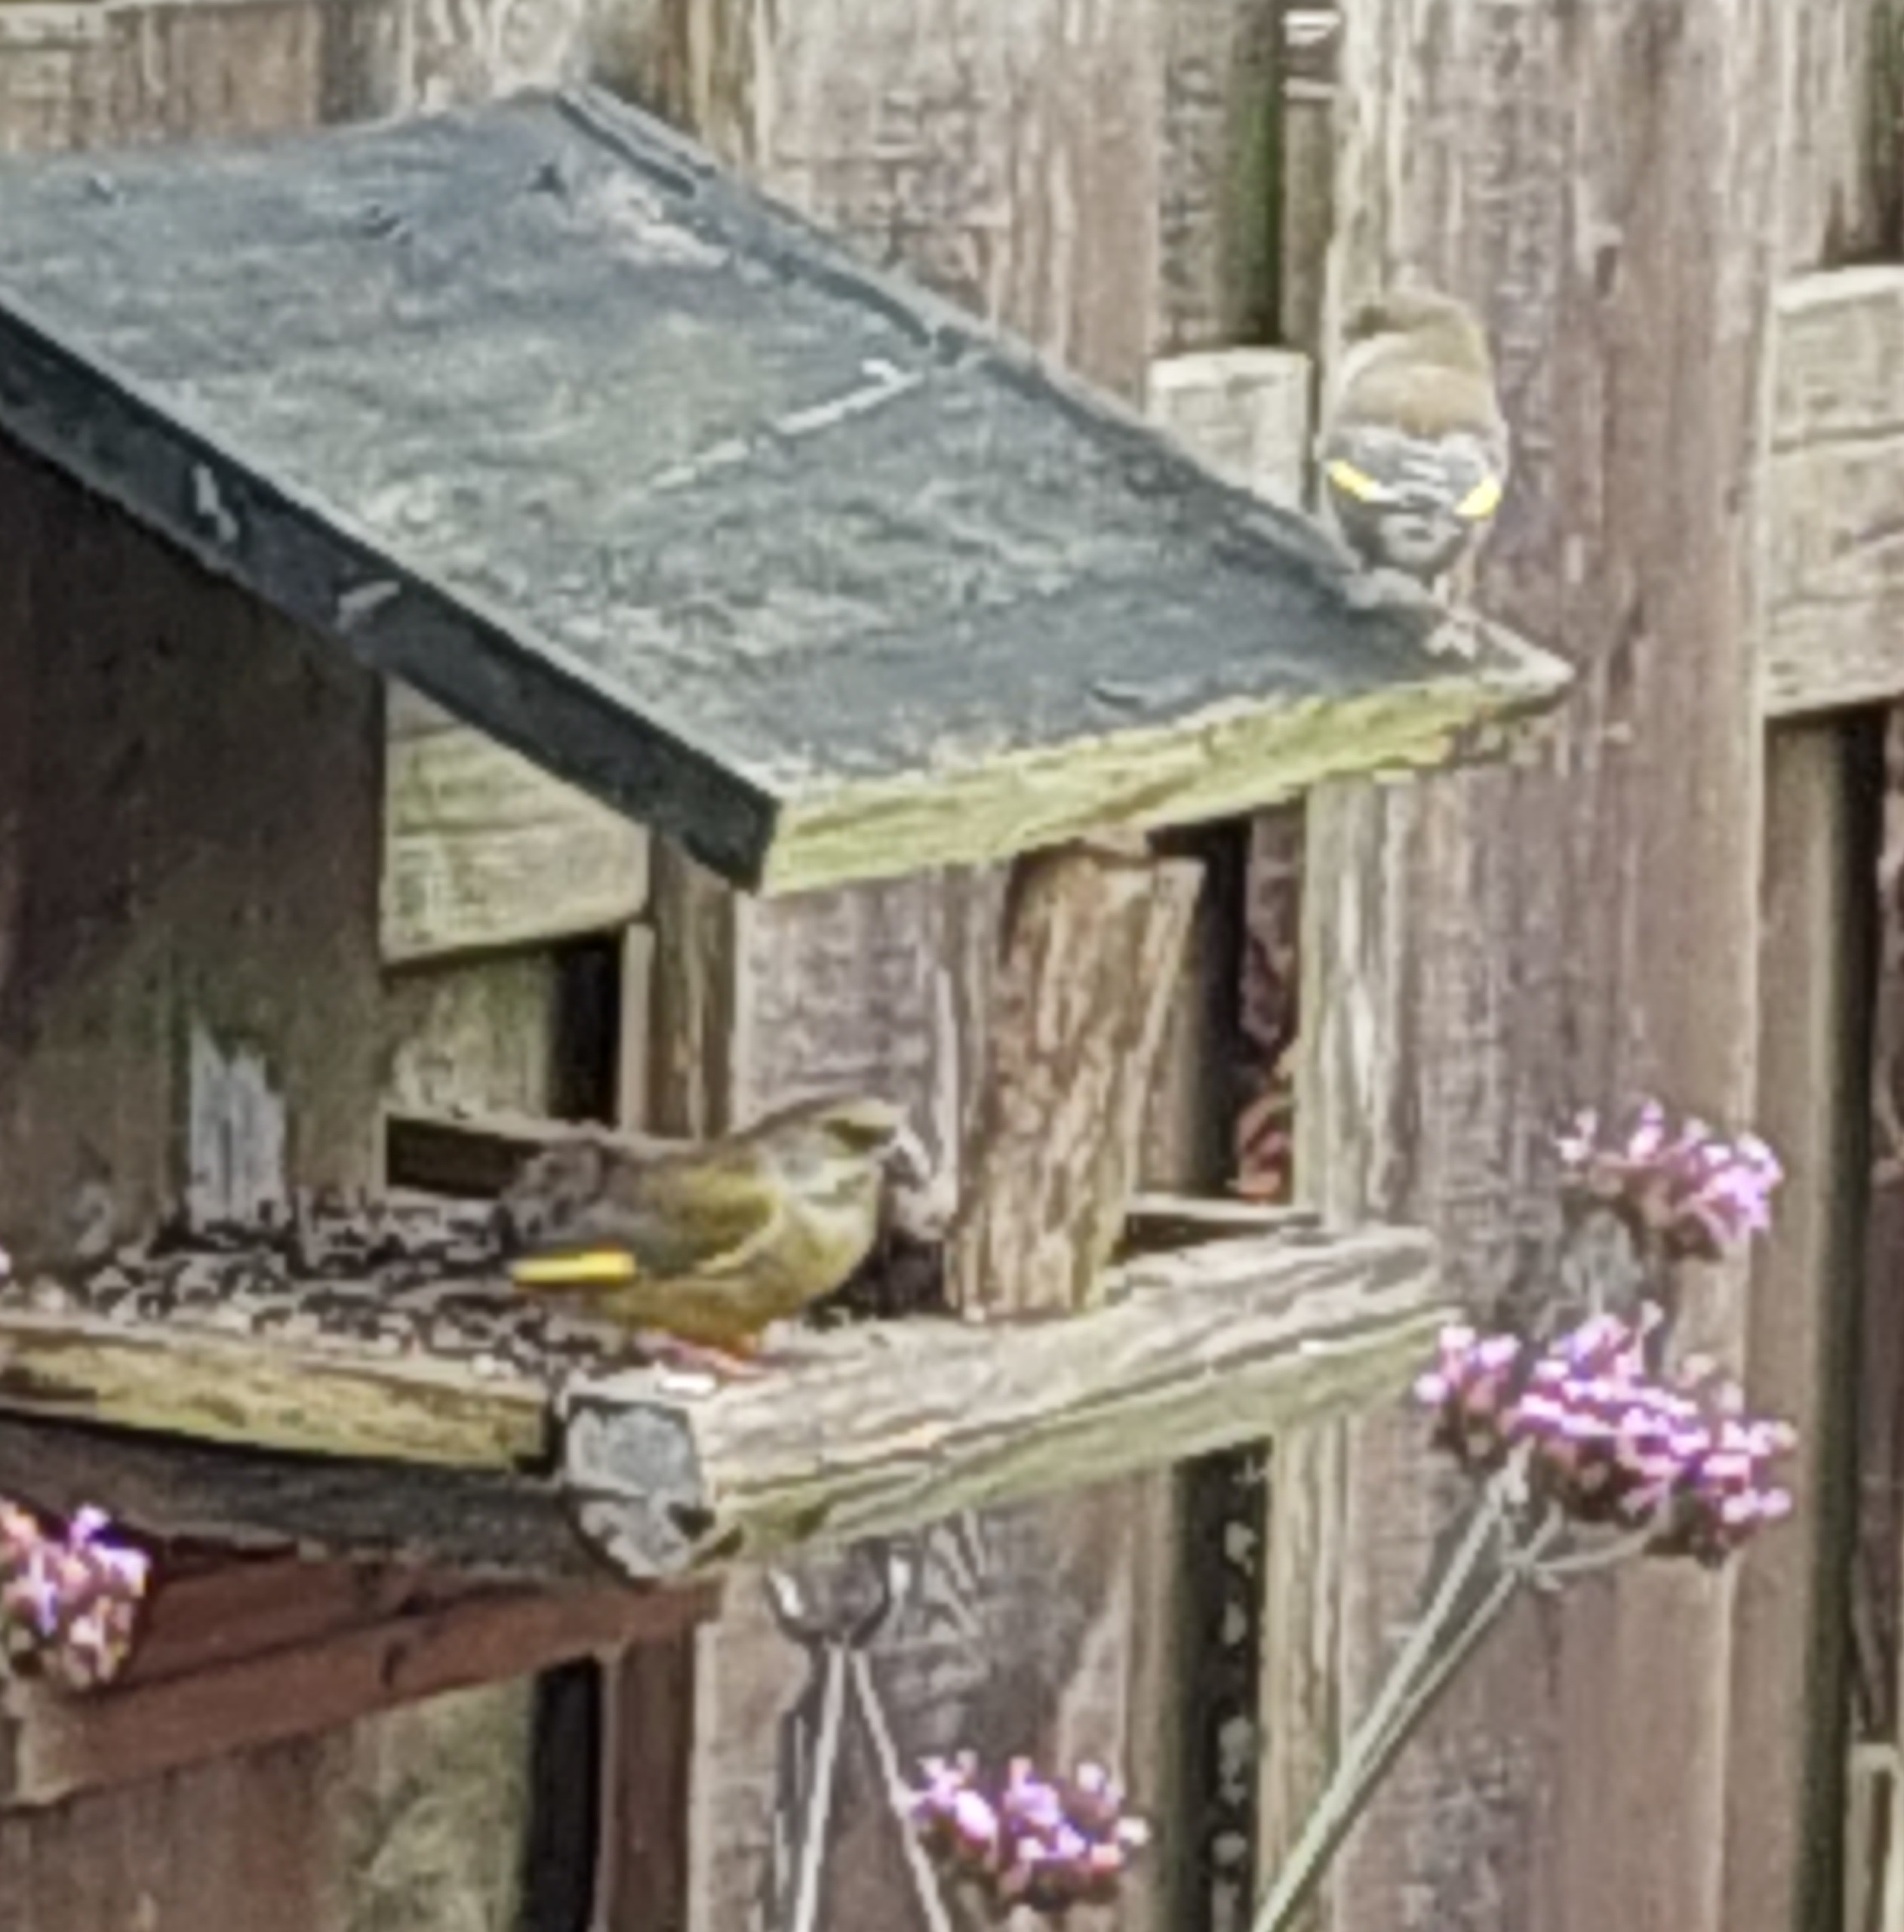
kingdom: Plantae
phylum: Tracheophyta
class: Liliopsida
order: Poales
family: Poaceae
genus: Chloris
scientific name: Chloris chloris
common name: Grønirisk
